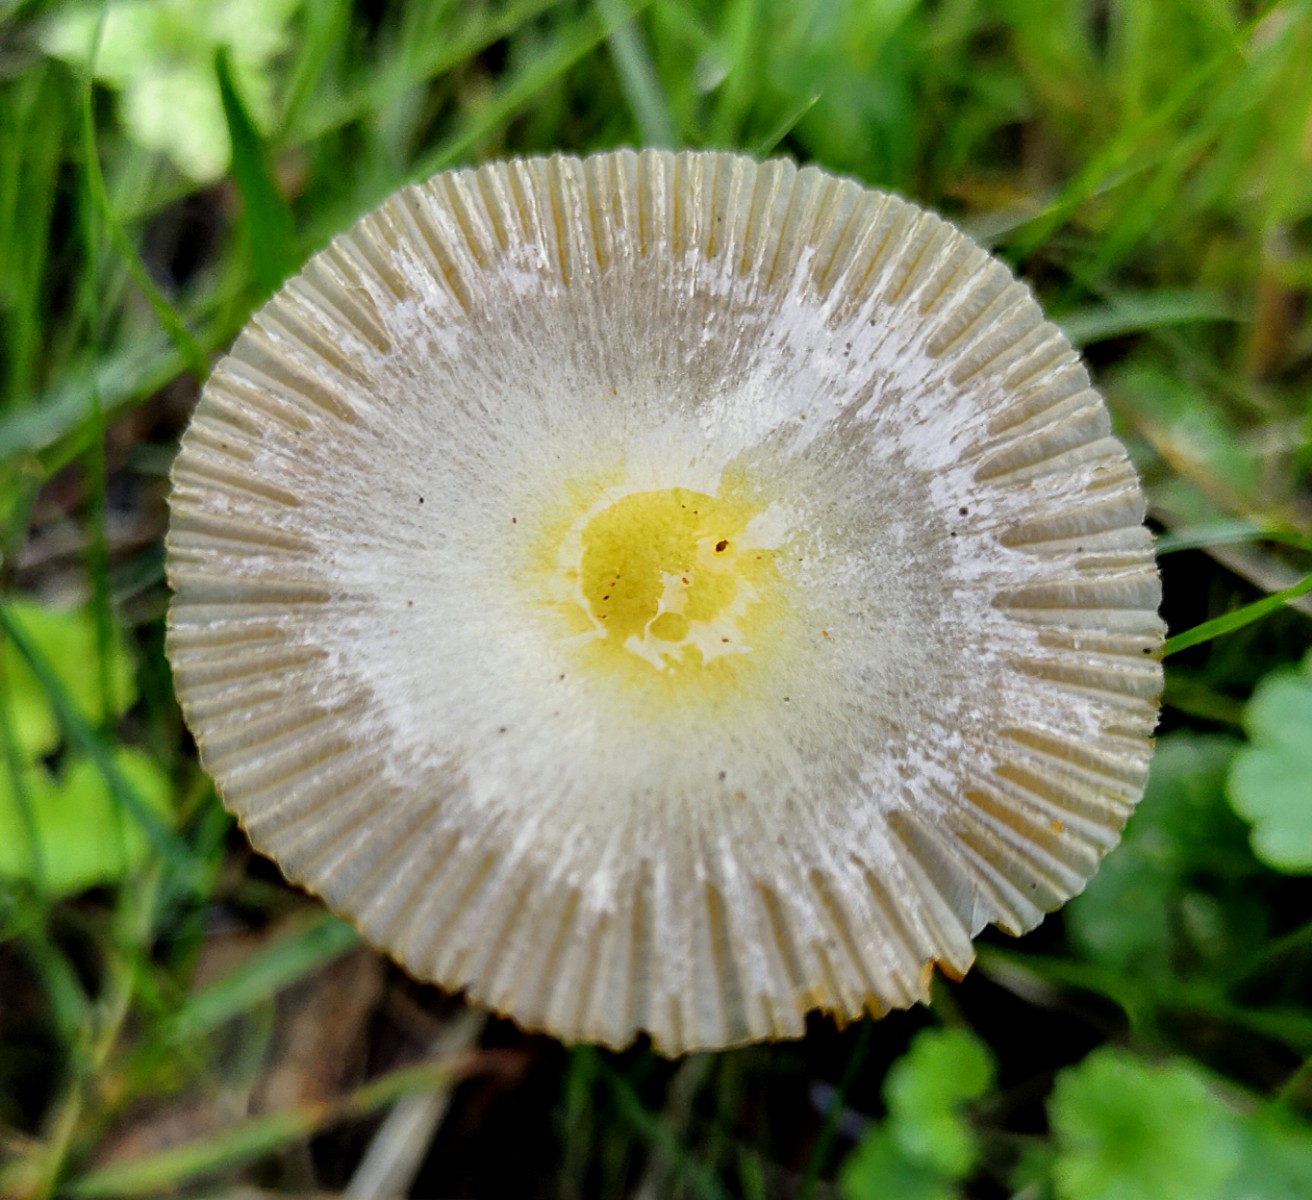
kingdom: Fungi
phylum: Basidiomycota
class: Agaricomycetes
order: Agaricales
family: Bolbitiaceae
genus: Bolbitius
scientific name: Bolbitius titubans
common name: almindelig gulhat
